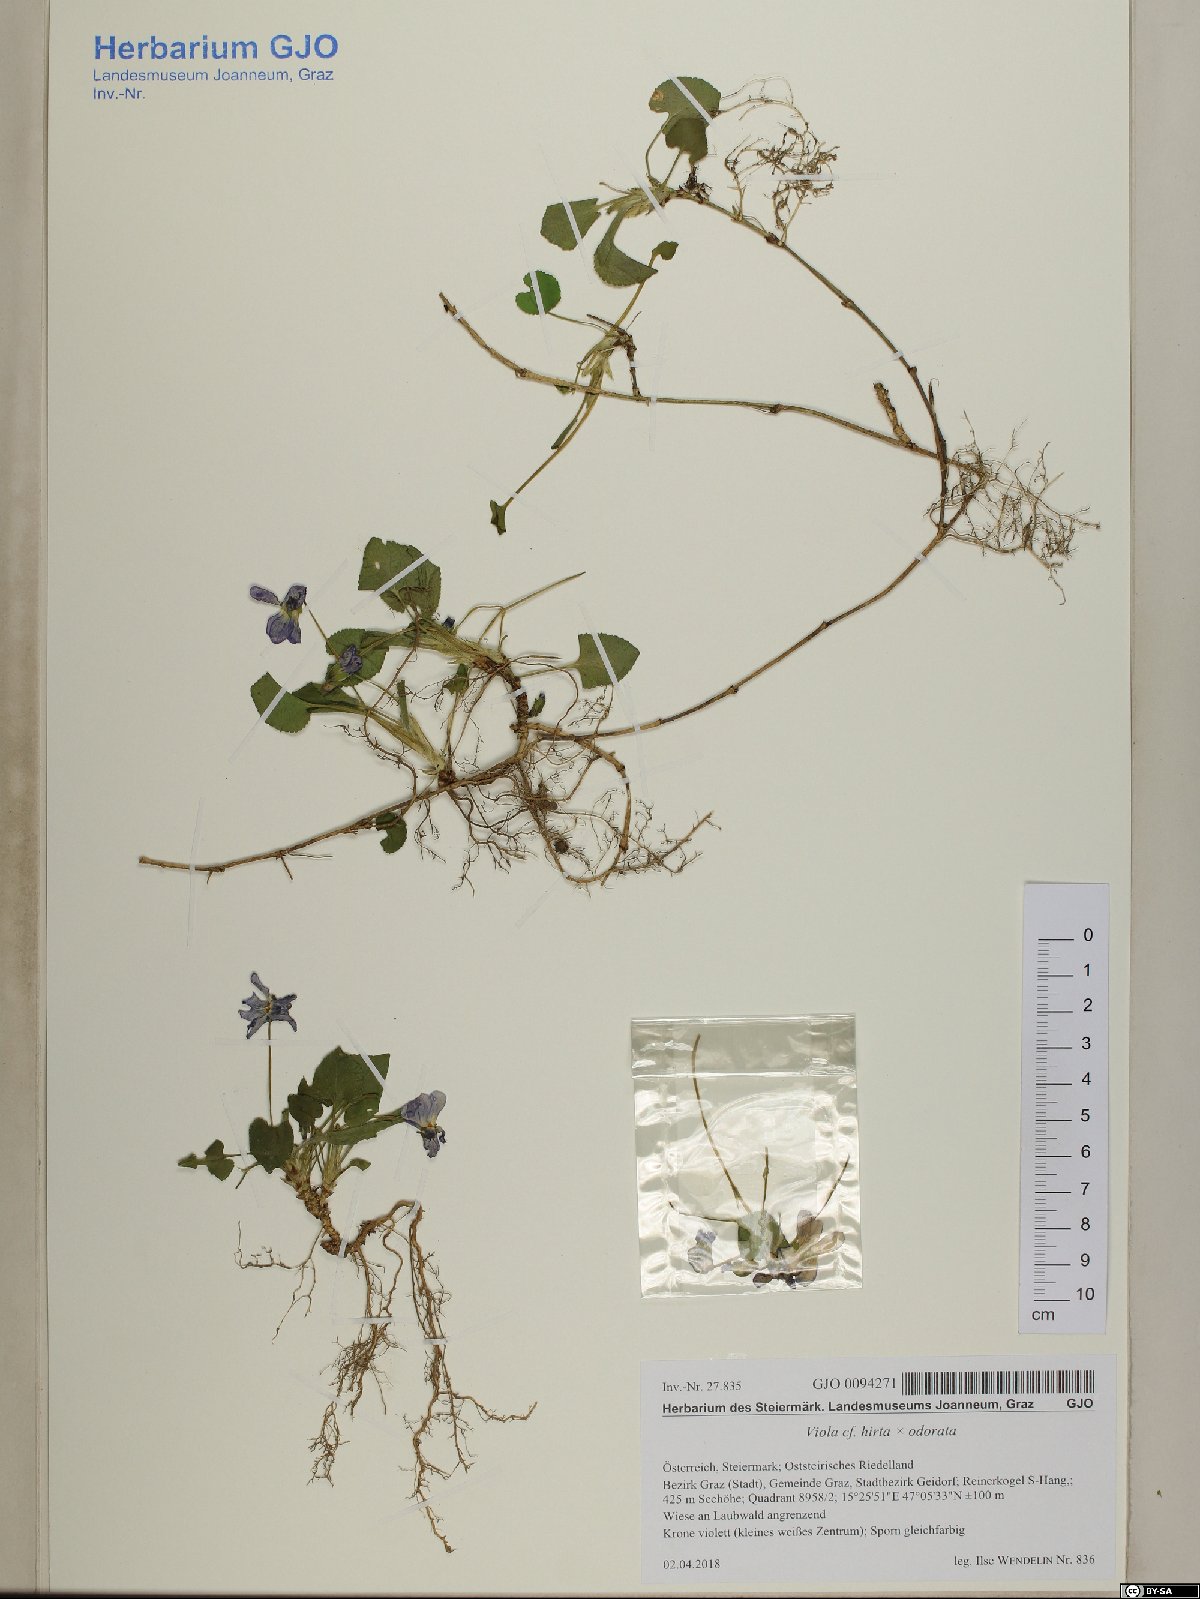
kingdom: Plantae
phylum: Tracheophyta
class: Magnoliopsida
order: Malpighiales
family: Violaceae
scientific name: Violaceae
